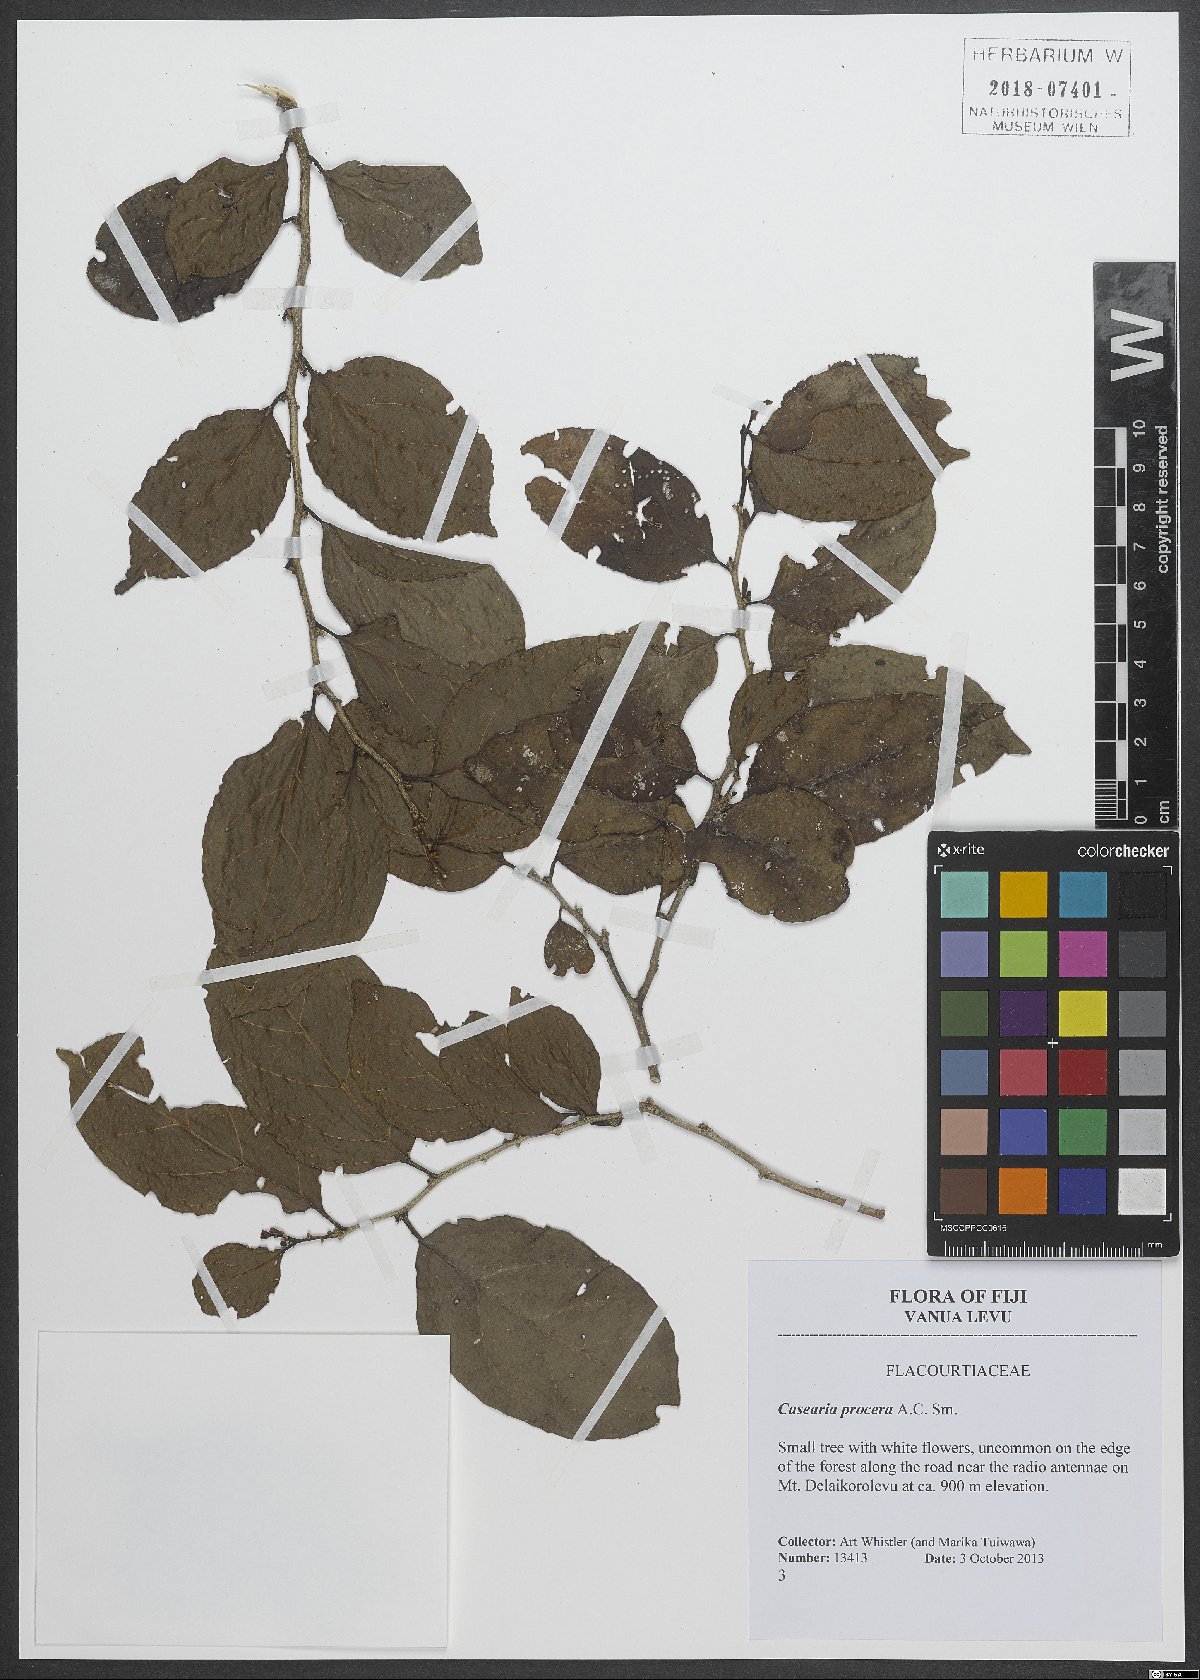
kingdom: Plantae
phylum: Tracheophyta
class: Magnoliopsida
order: Malpighiales
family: Salicaceae
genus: Casearia
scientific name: Casearia procera
